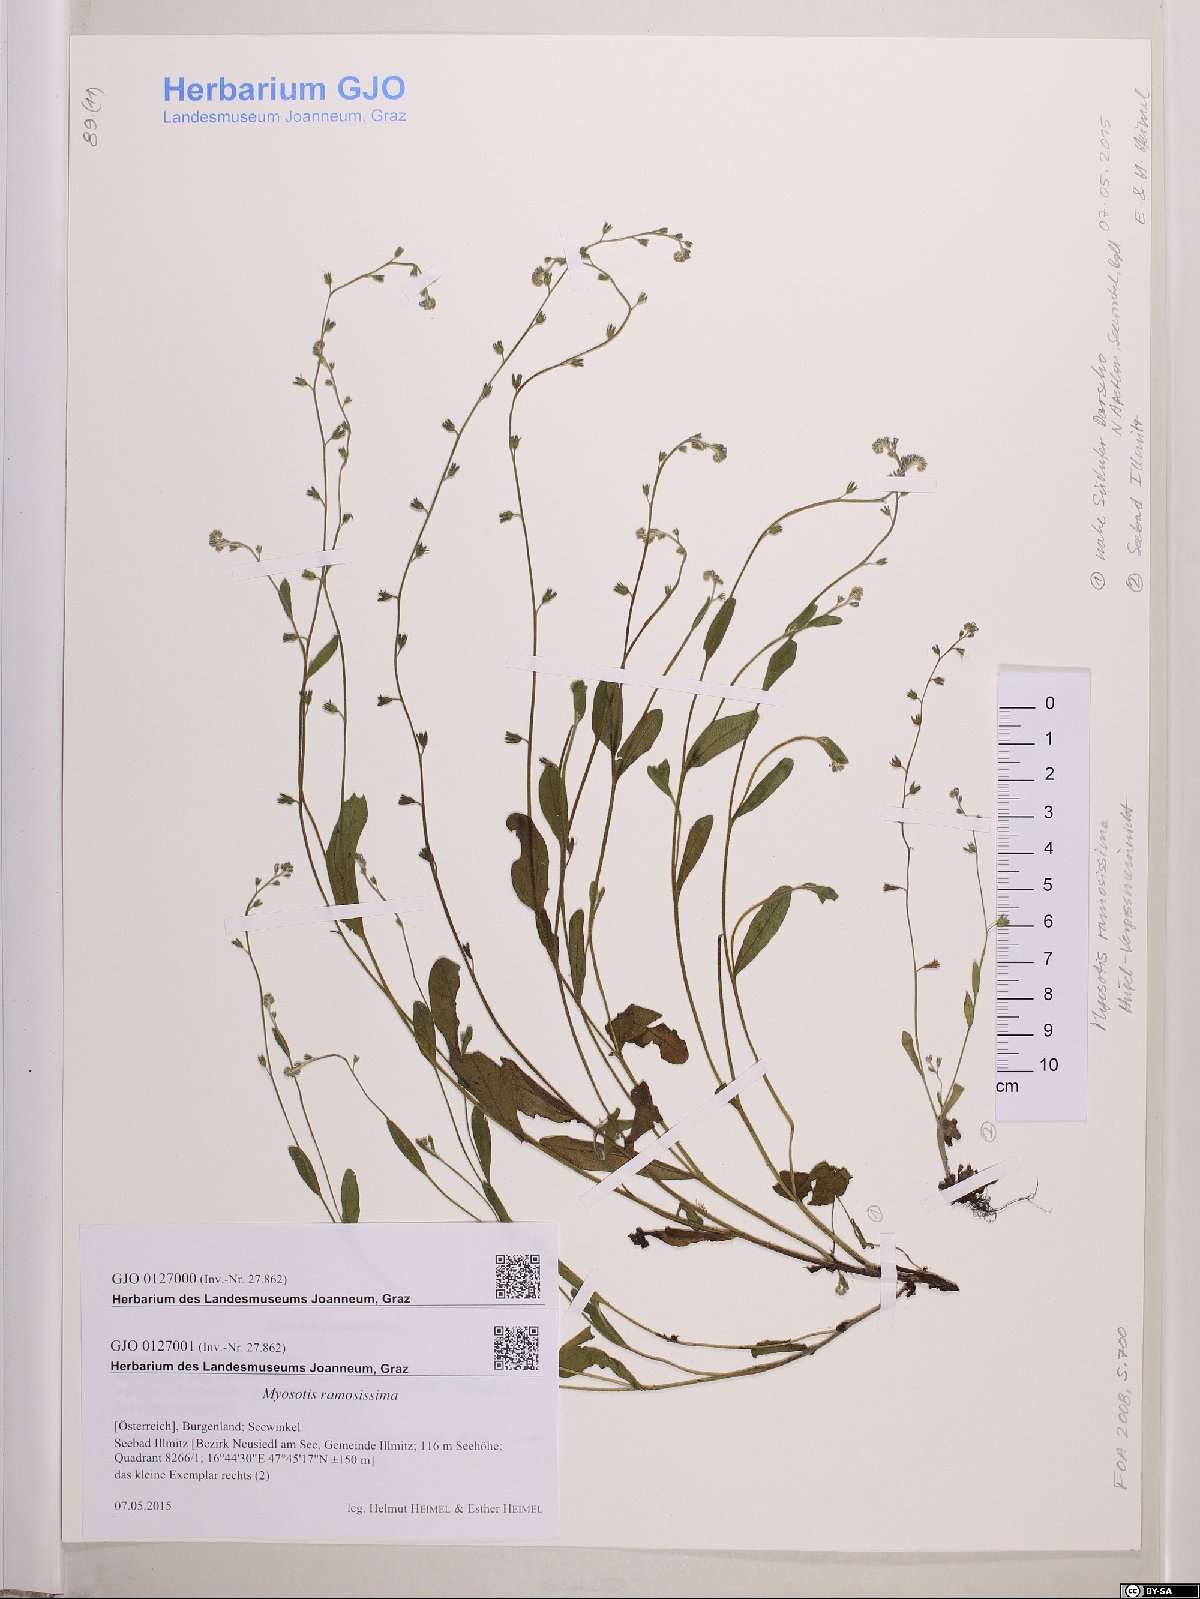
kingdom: Plantae
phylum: Tracheophyta
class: Magnoliopsida
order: Boraginales
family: Boraginaceae
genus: Myosotis
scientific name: Myosotis ramosissima
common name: Early forget-me-not
